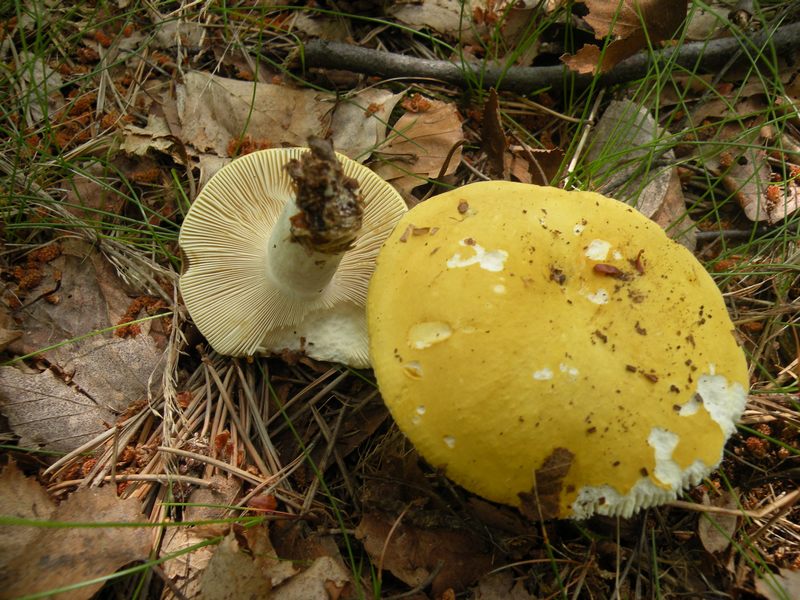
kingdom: Fungi
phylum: Basidiomycota
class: Agaricomycetes
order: Russulales
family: Russulaceae
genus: Russula
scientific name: Russula claroflava
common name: birke-skørhat
